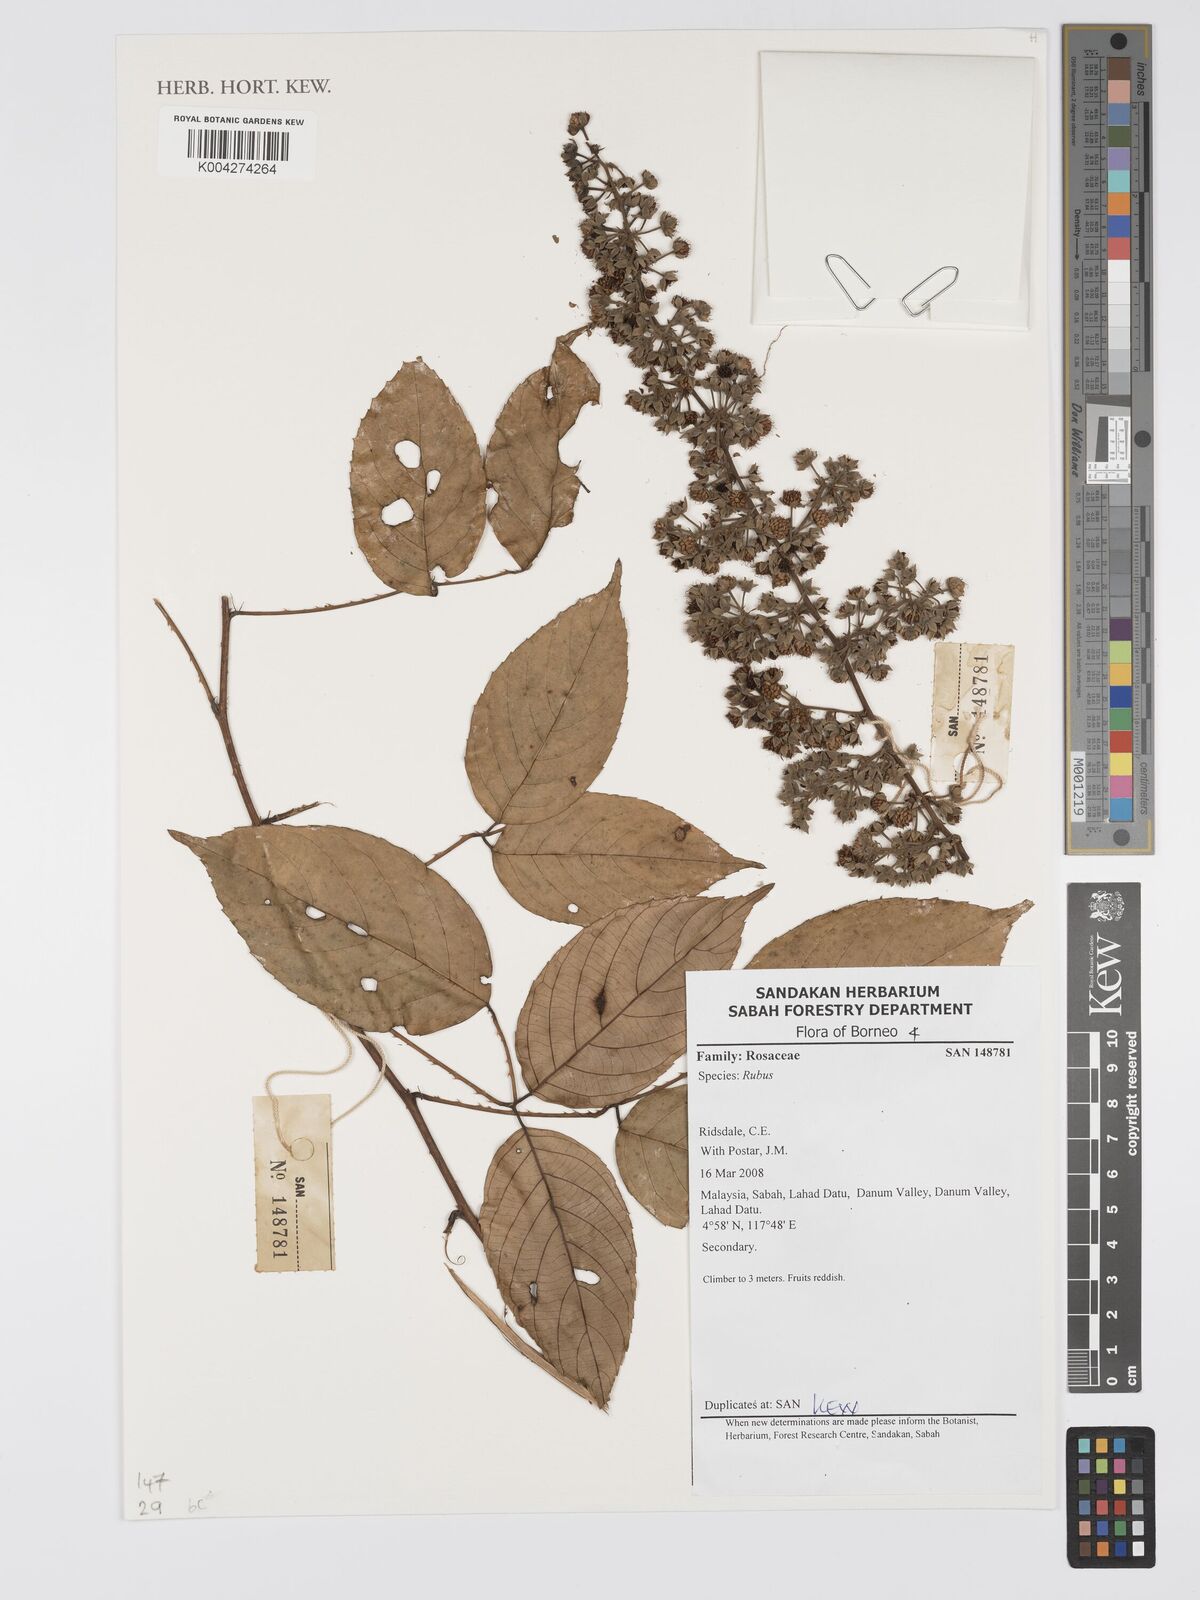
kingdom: Plantae
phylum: Tracheophyta
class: Magnoliopsida
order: Rosales
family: Rosaceae
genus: Rubus
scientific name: Rubus
